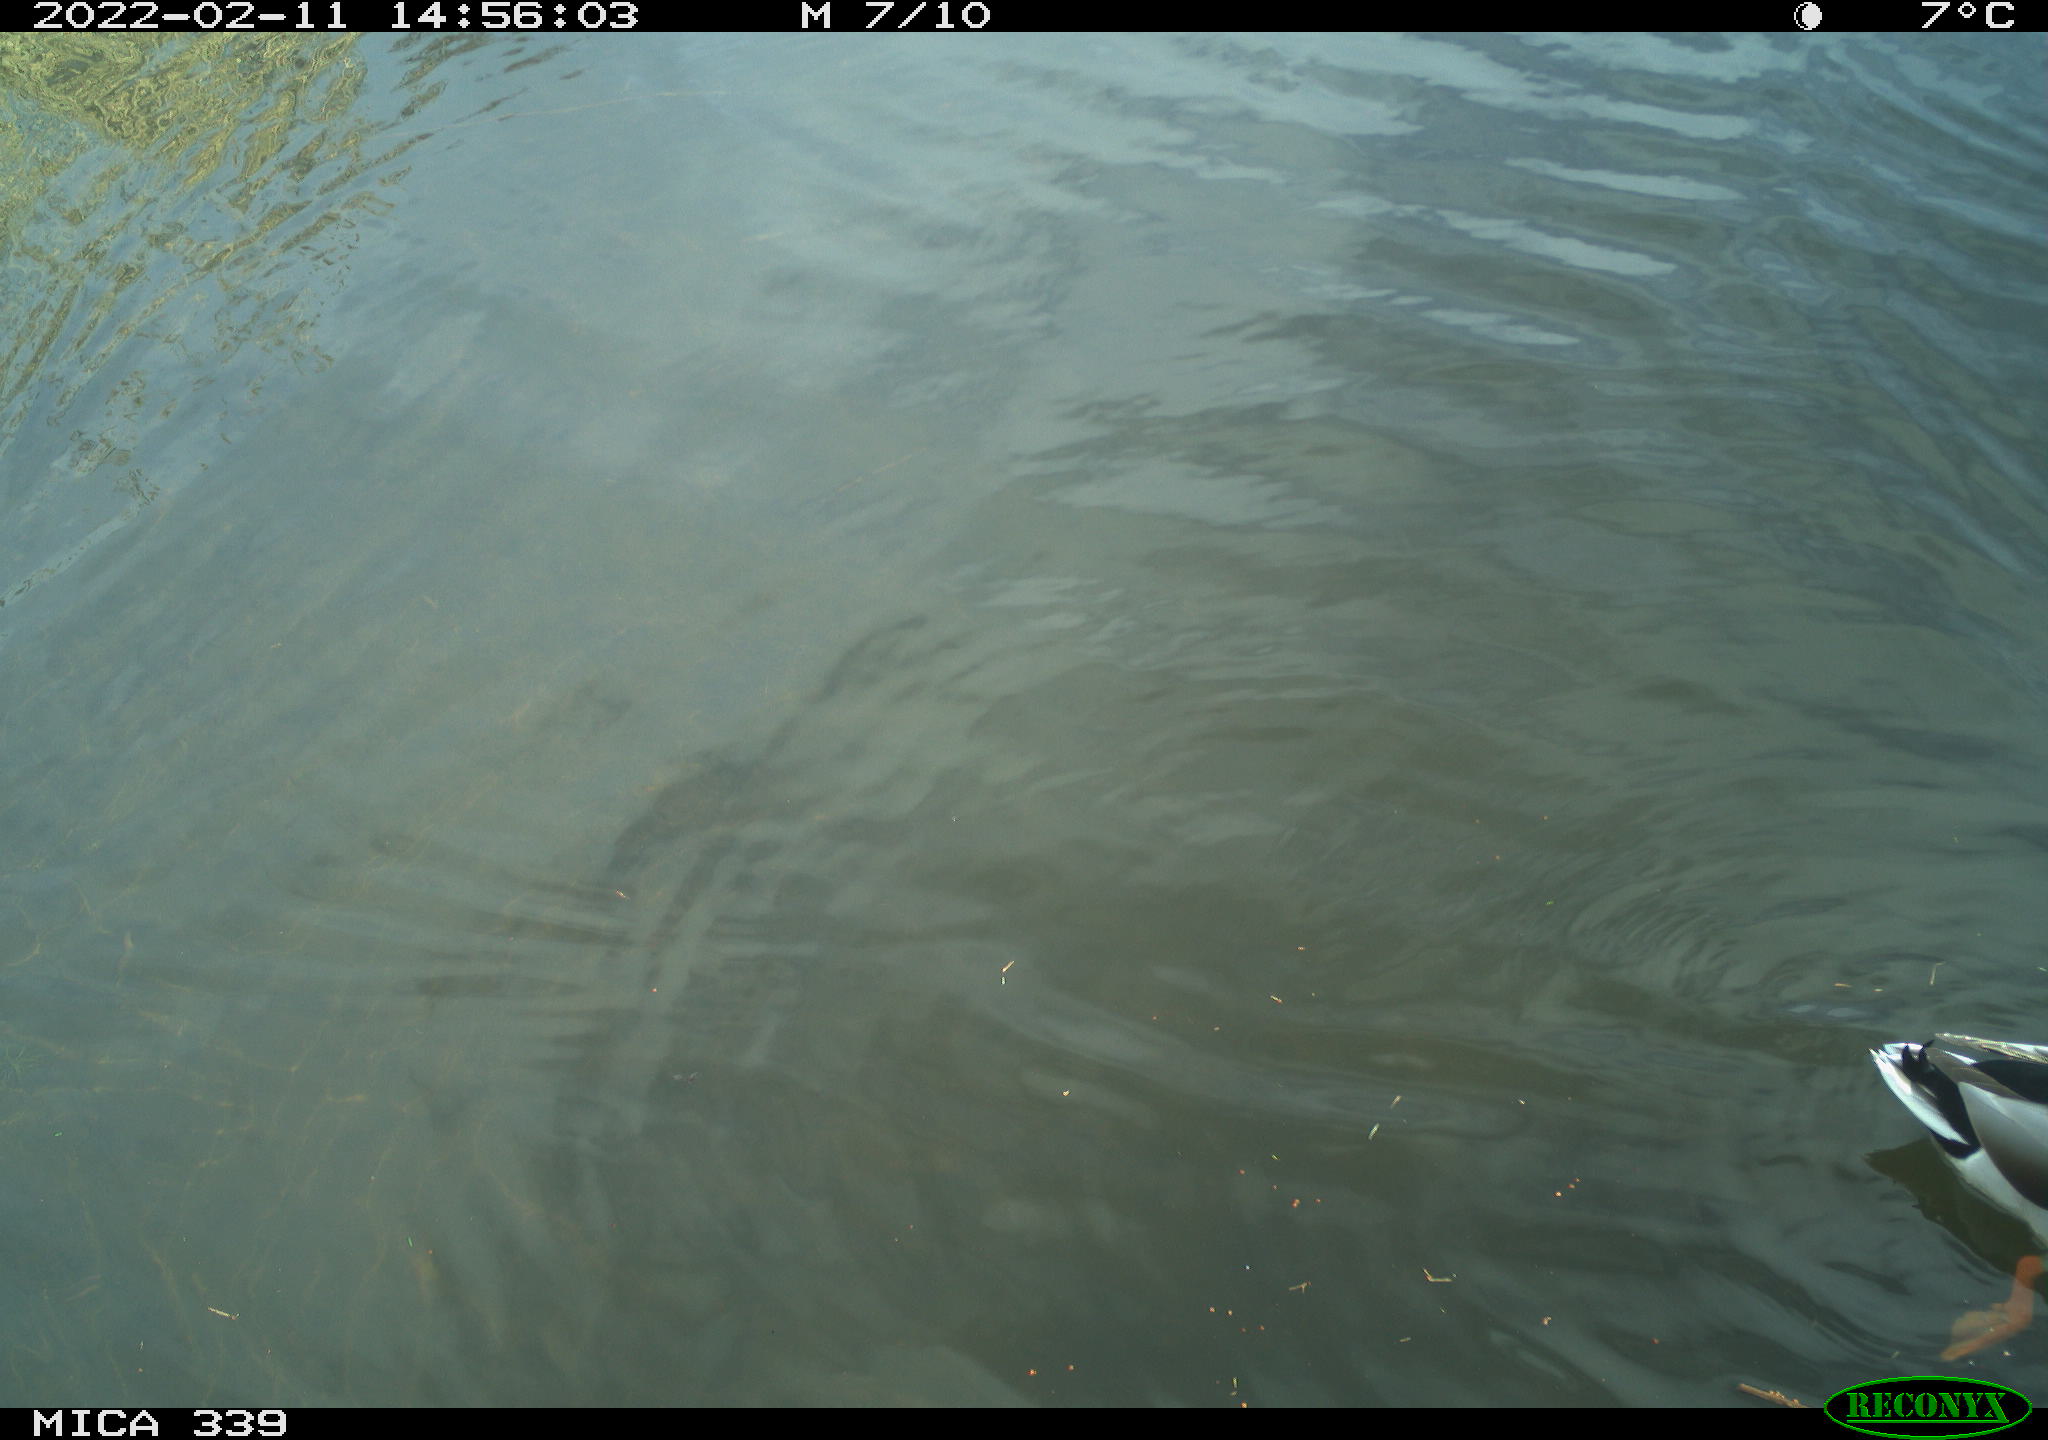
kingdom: Animalia
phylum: Chordata
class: Aves
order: Anseriformes
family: Anatidae
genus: Anas
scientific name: Anas platyrhynchos
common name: Mallard
